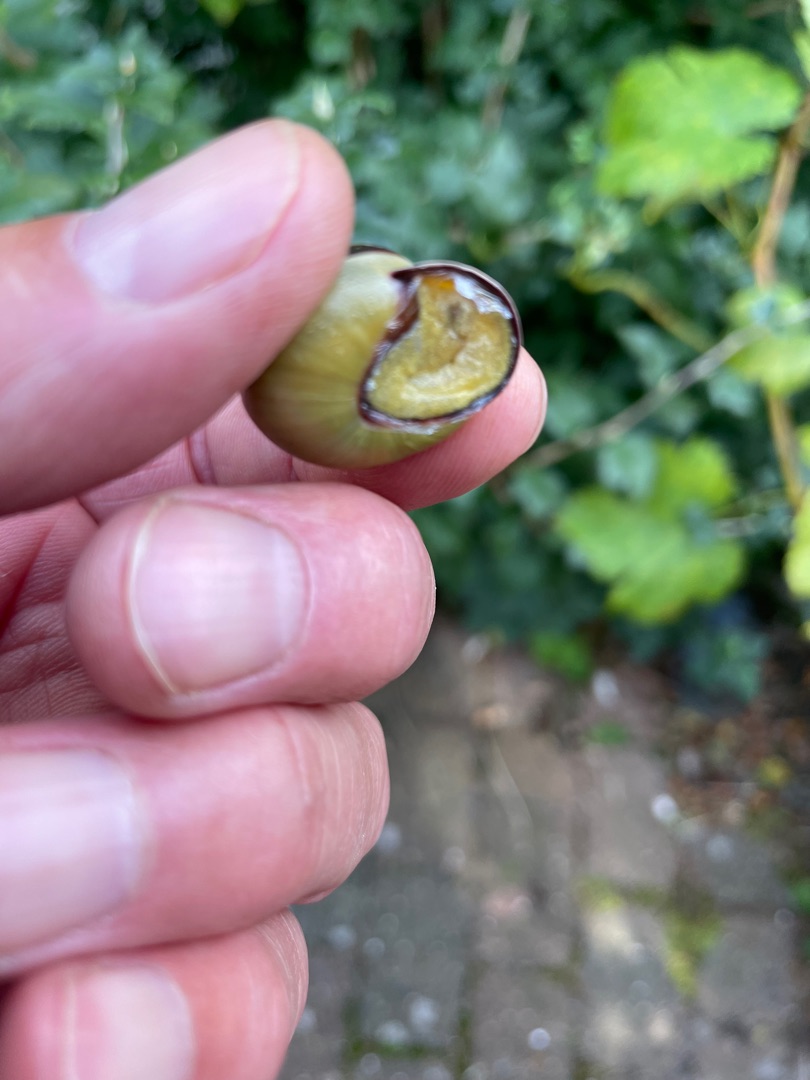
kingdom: Animalia
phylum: Mollusca
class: Gastropoda
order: Stylommatophora
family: Helicidae
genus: Cepaea
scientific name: Cepaea nemoralis
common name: Lundsnegl
